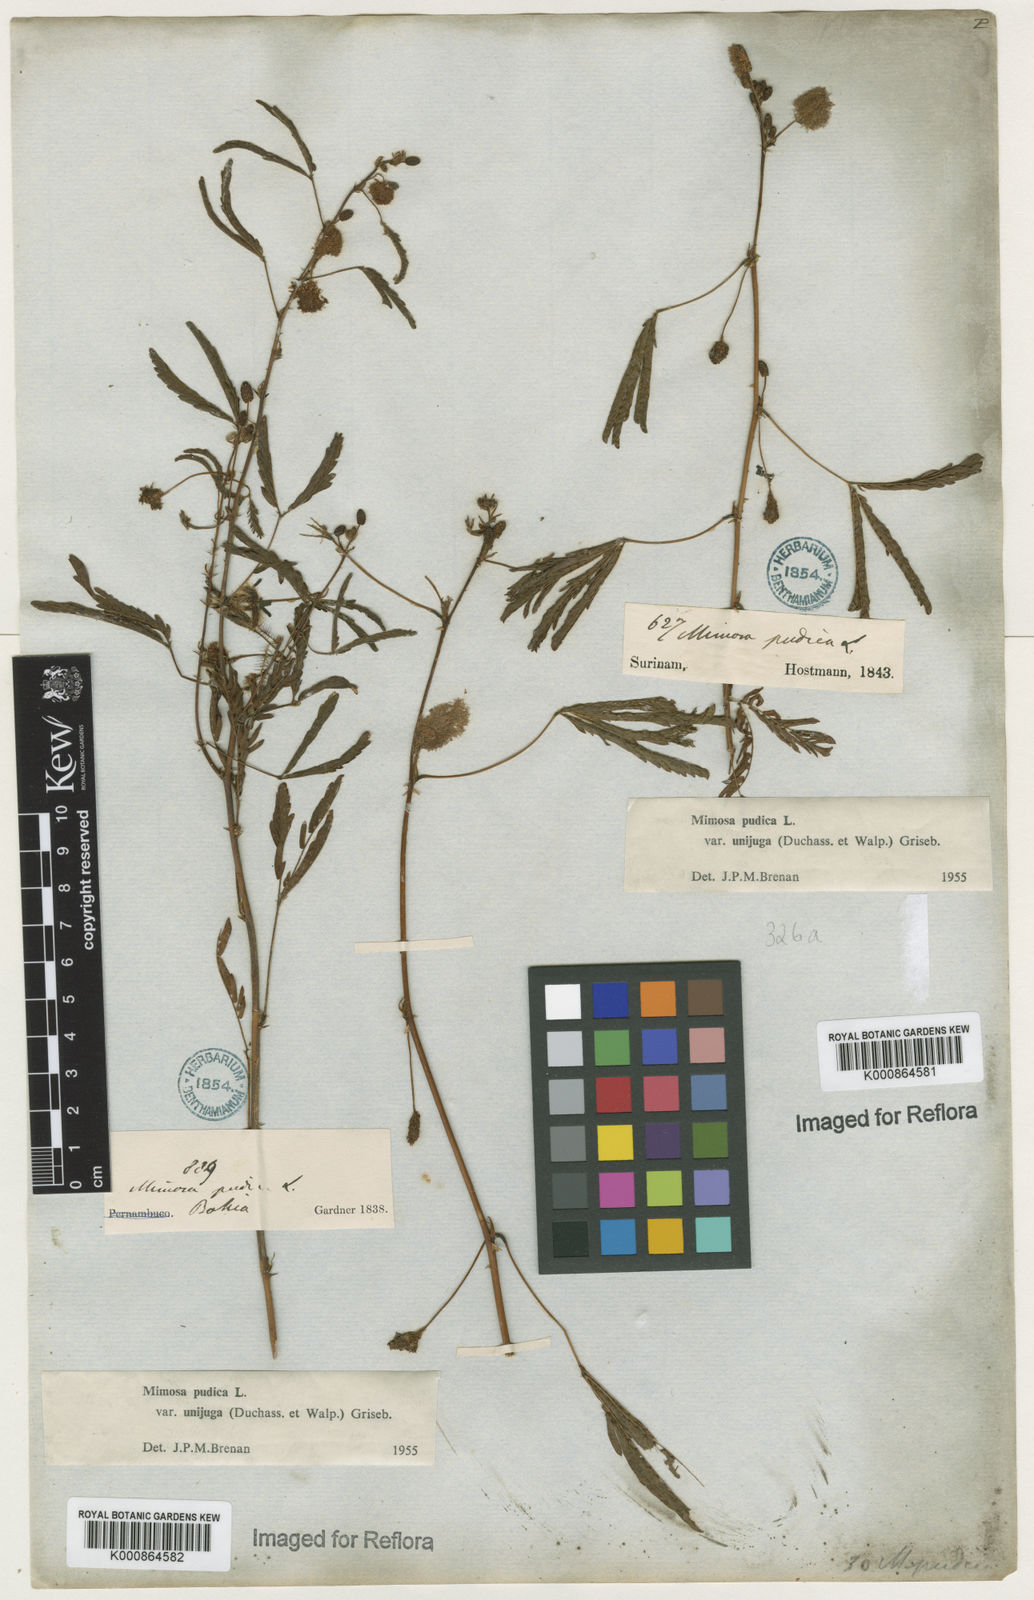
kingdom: Plantae
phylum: Tracheophyta
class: Magnoliopsida
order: Fabales
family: Fabaceae
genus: Mimosa
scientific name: Mimosa pudica
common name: Sensitive plant
